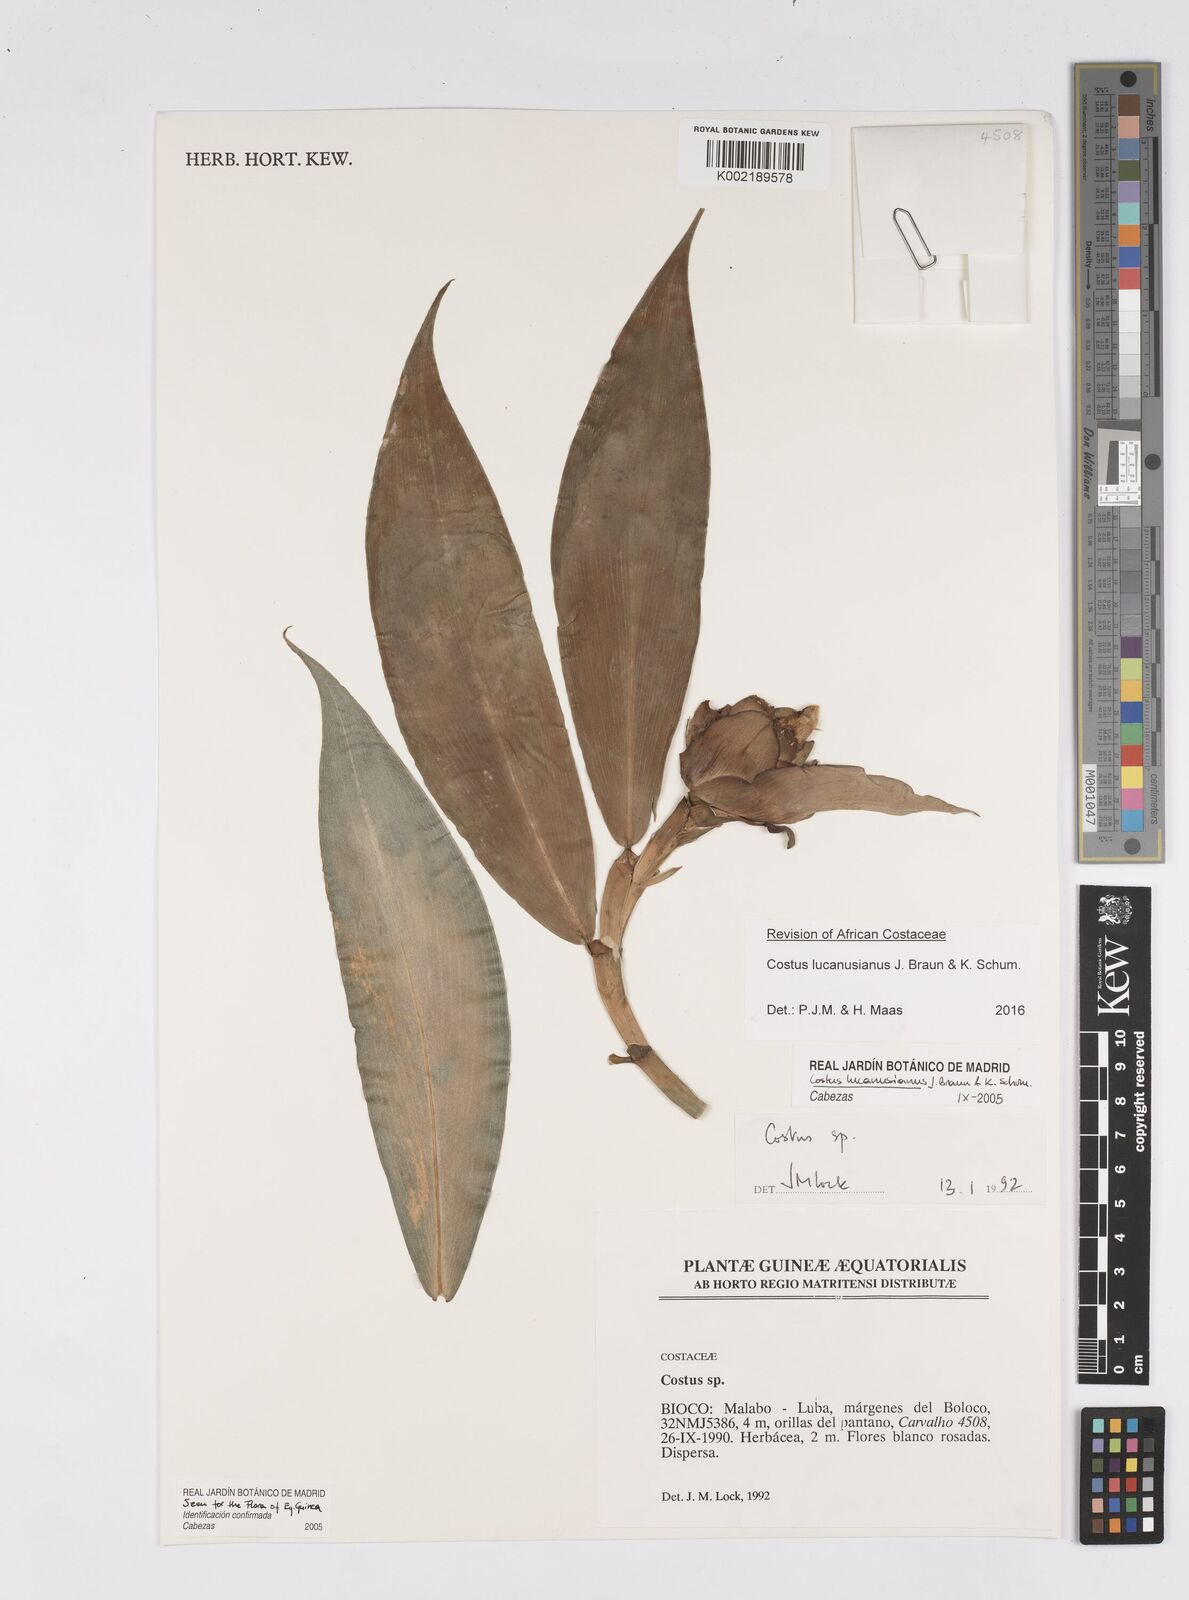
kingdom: Plantae
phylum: Tracheophyta
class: Liliopsida
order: Zingiberales
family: Costaceae
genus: Costus
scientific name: Costus lucanusianus
